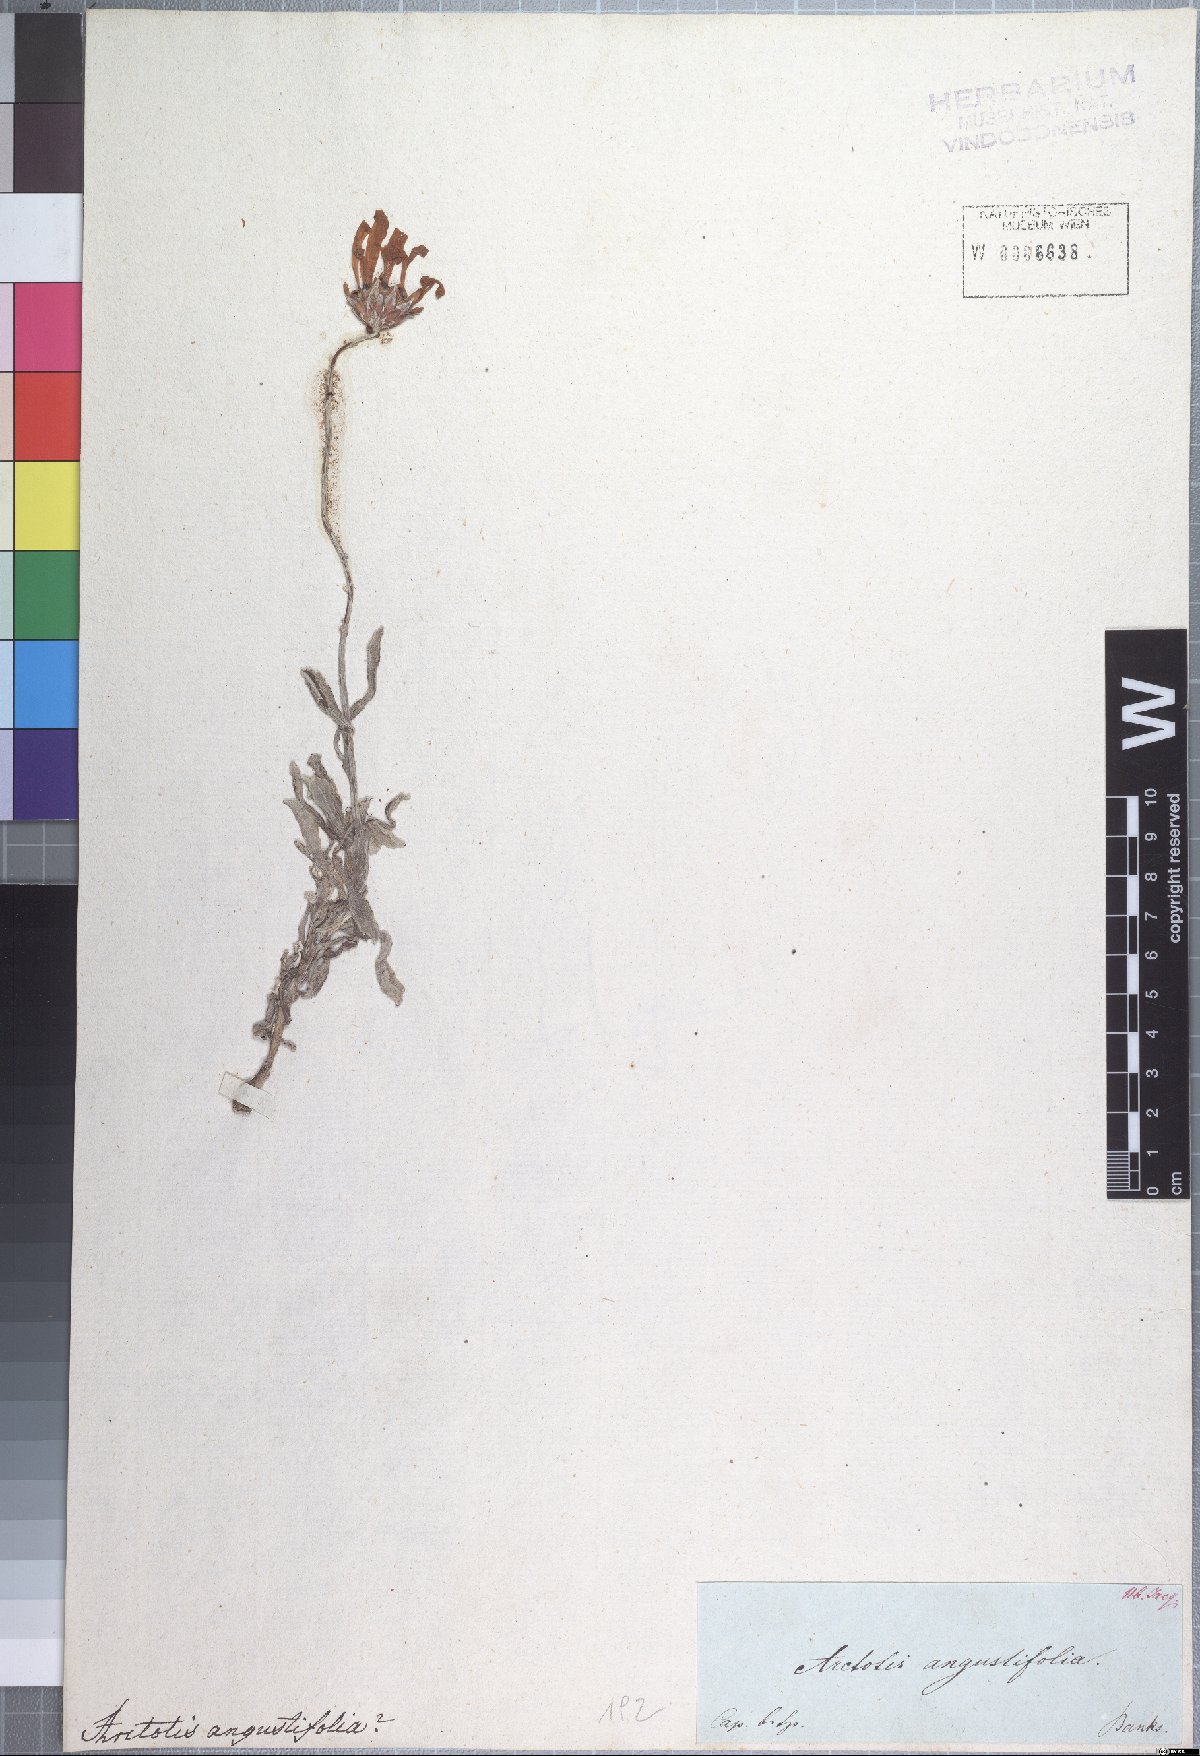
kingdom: Plantae
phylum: Tracheophyta
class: Magnoliopsida
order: Asterales
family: Asteraceae
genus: Arctotis
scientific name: Arctotis aspera
